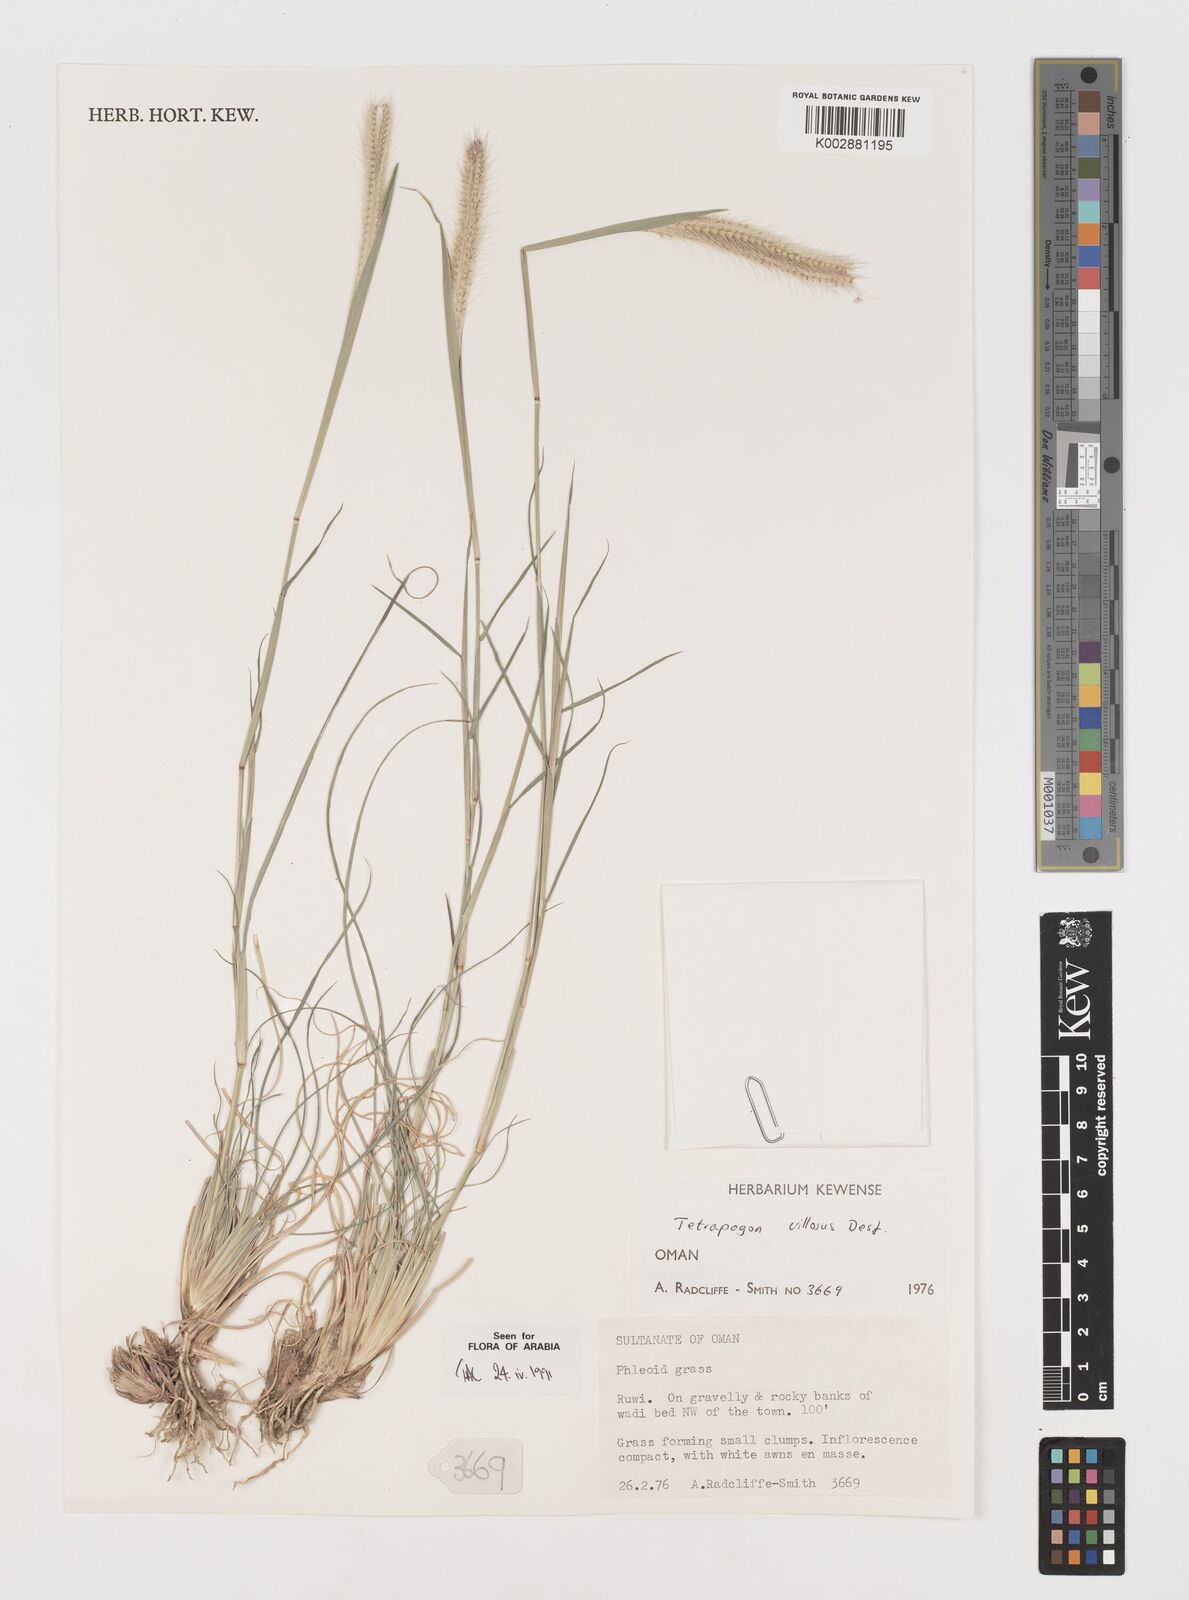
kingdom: Plantae
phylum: Tracheophyta
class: Liliopsida
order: Poales
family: Poaceae
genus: Tetrapogon
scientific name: Tetrapogon villosus
